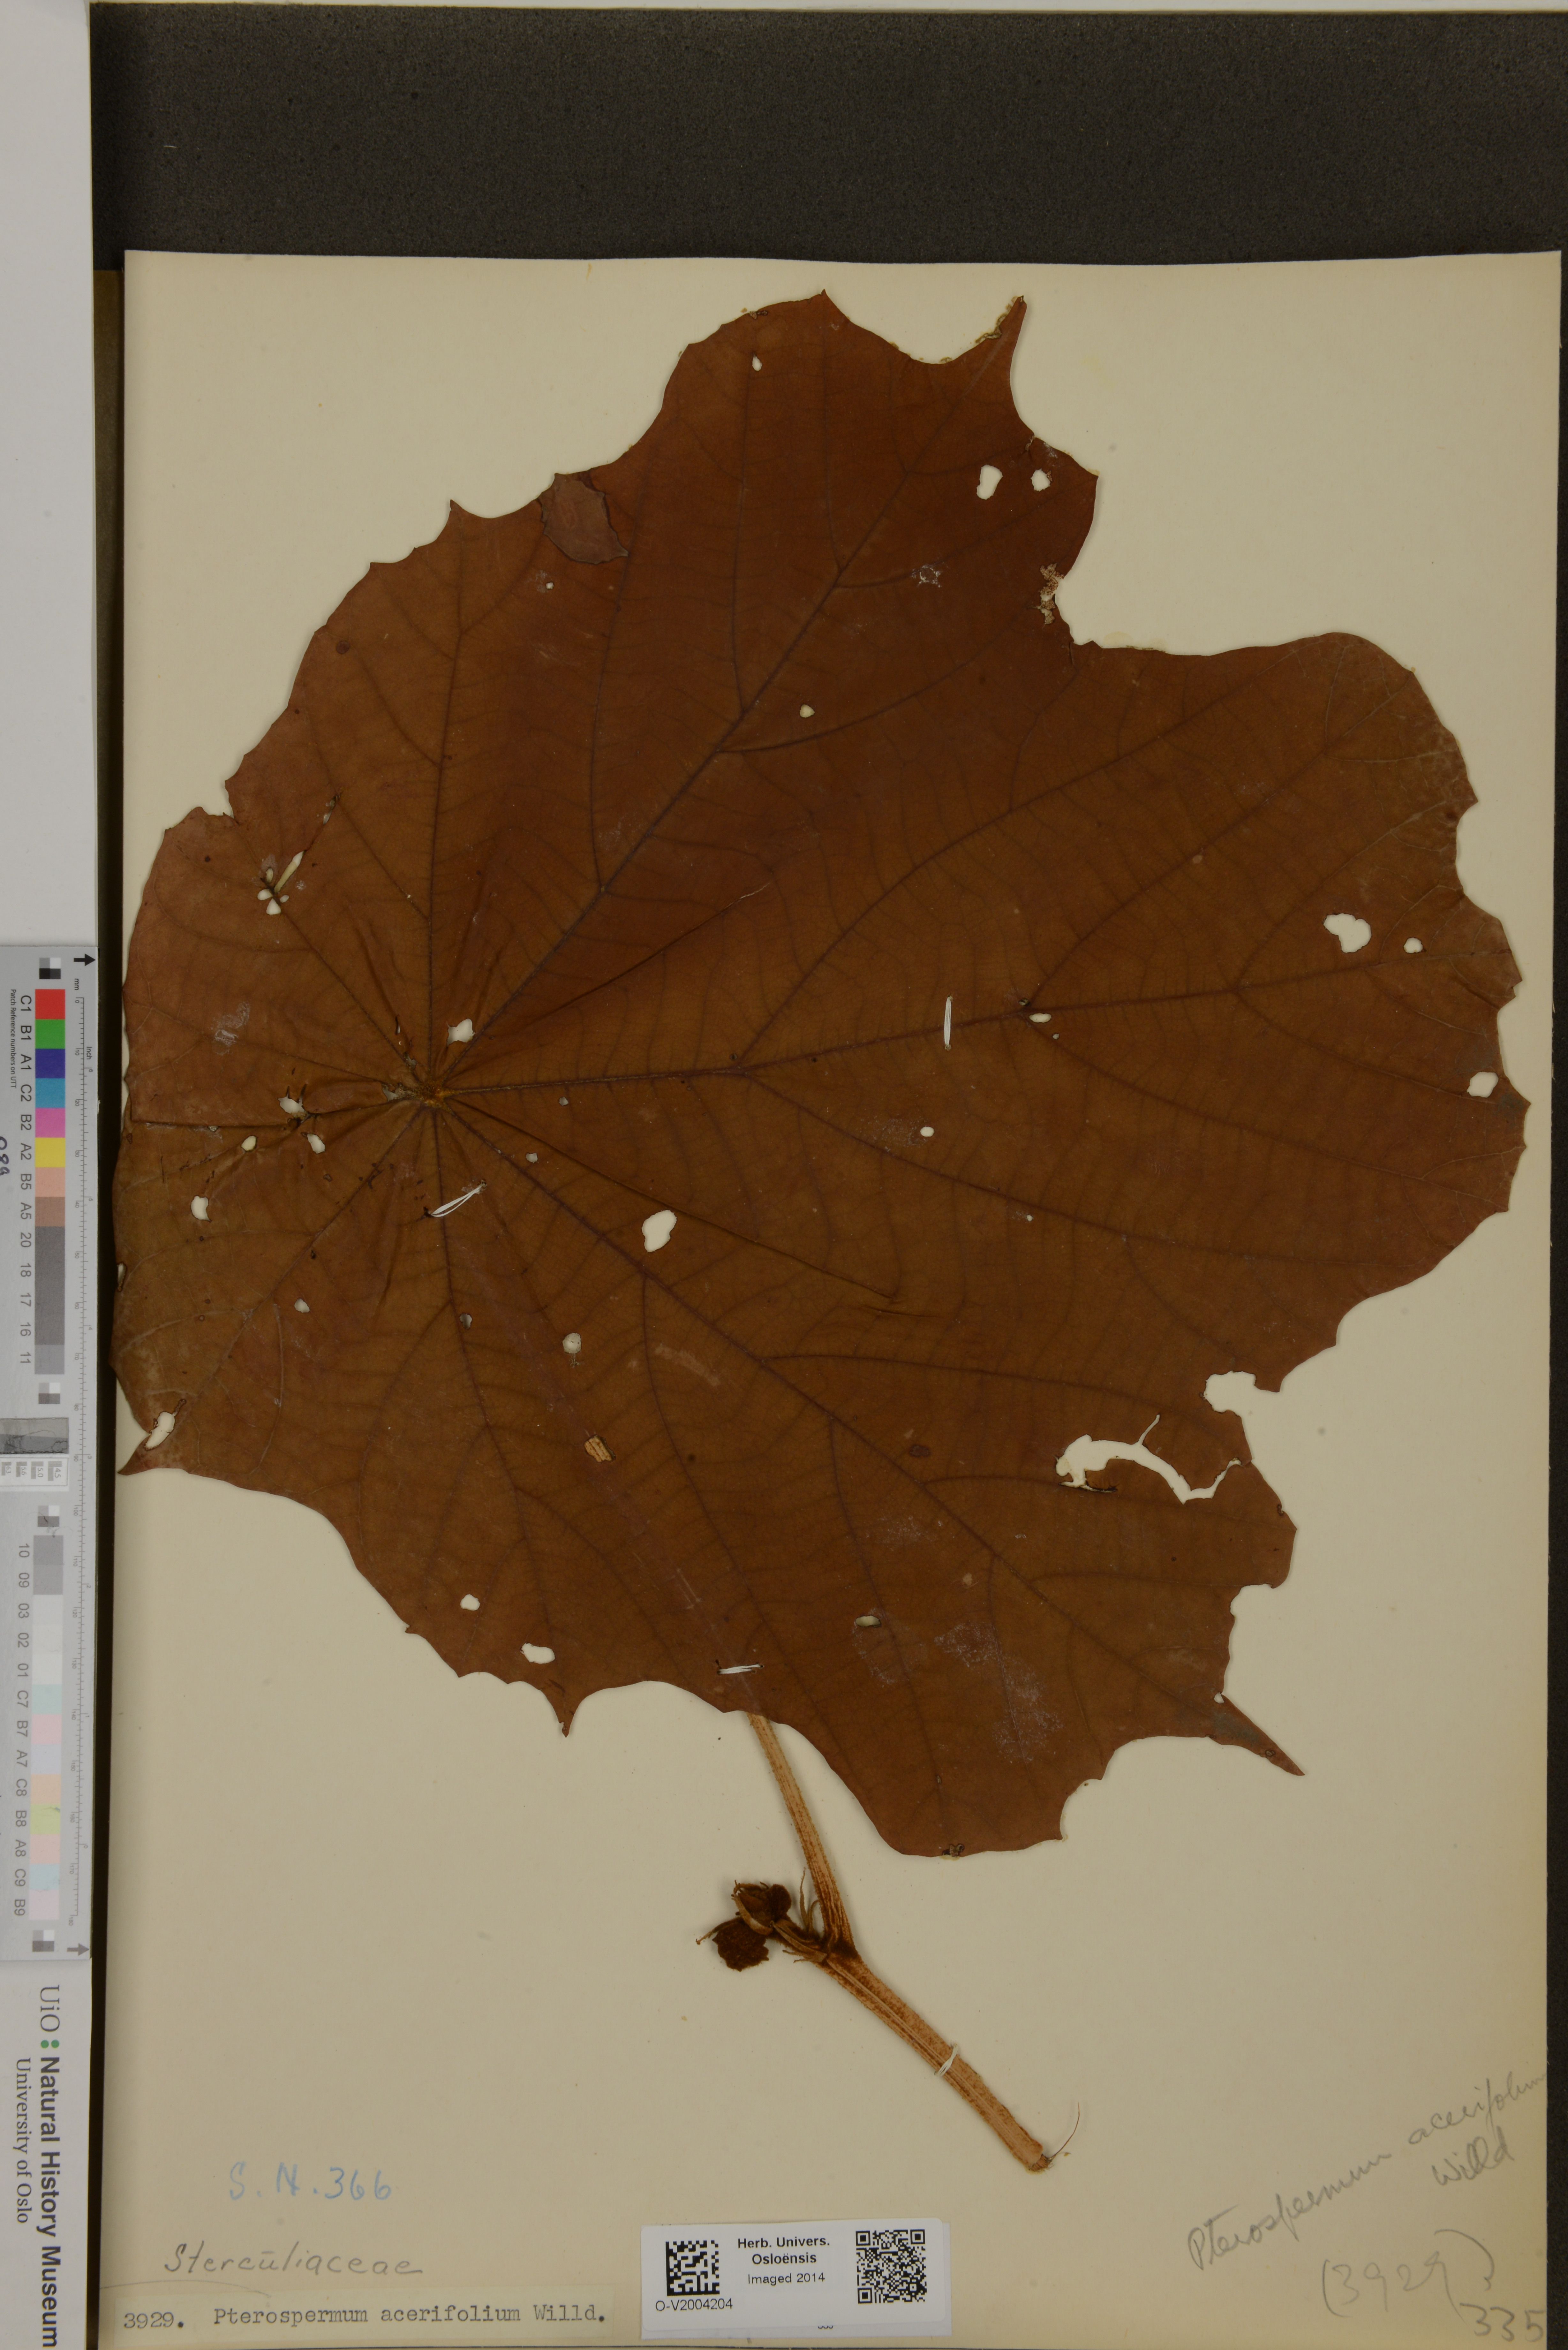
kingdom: Plantae
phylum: Tracheophyta
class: Magnoliopsida
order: Malvales
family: Malvaceae
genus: Pterospermum
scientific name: Pterospermum acerifolium
